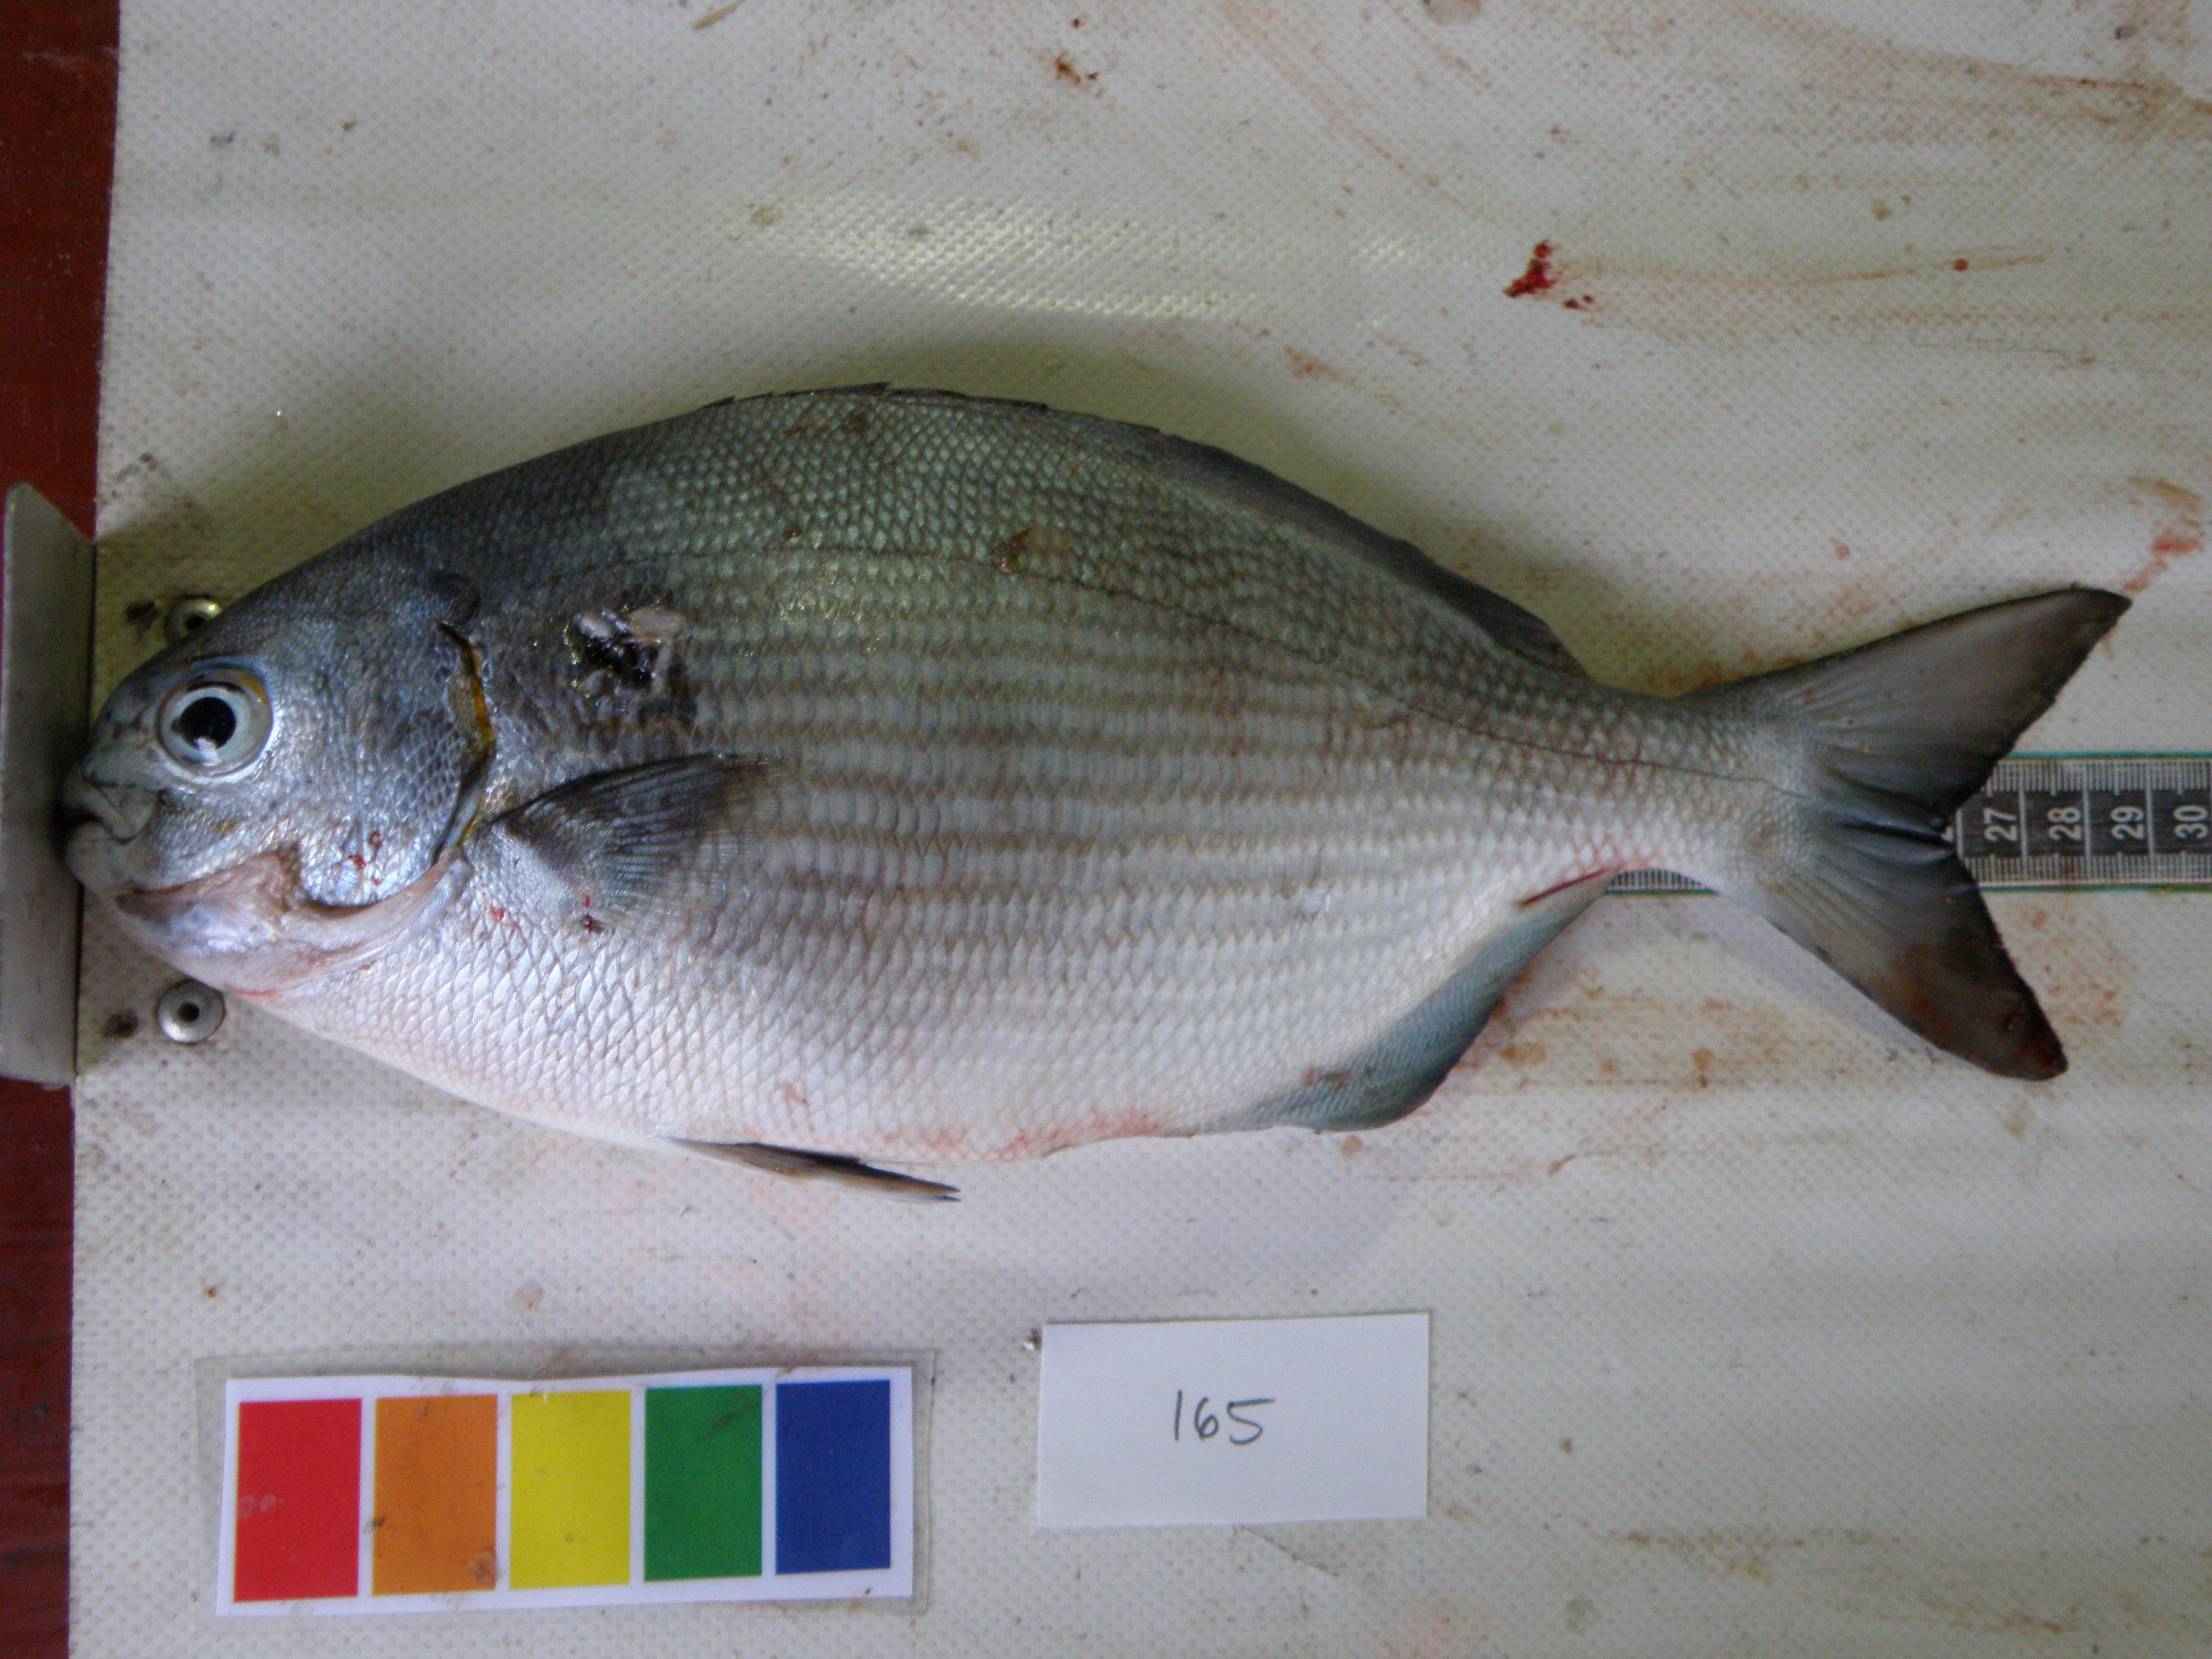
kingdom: Animalia
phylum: Chordata
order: Perciformes
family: Kyphosidae
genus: Kyphosus
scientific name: Kyphosus vaigiensis
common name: Brassy chub
